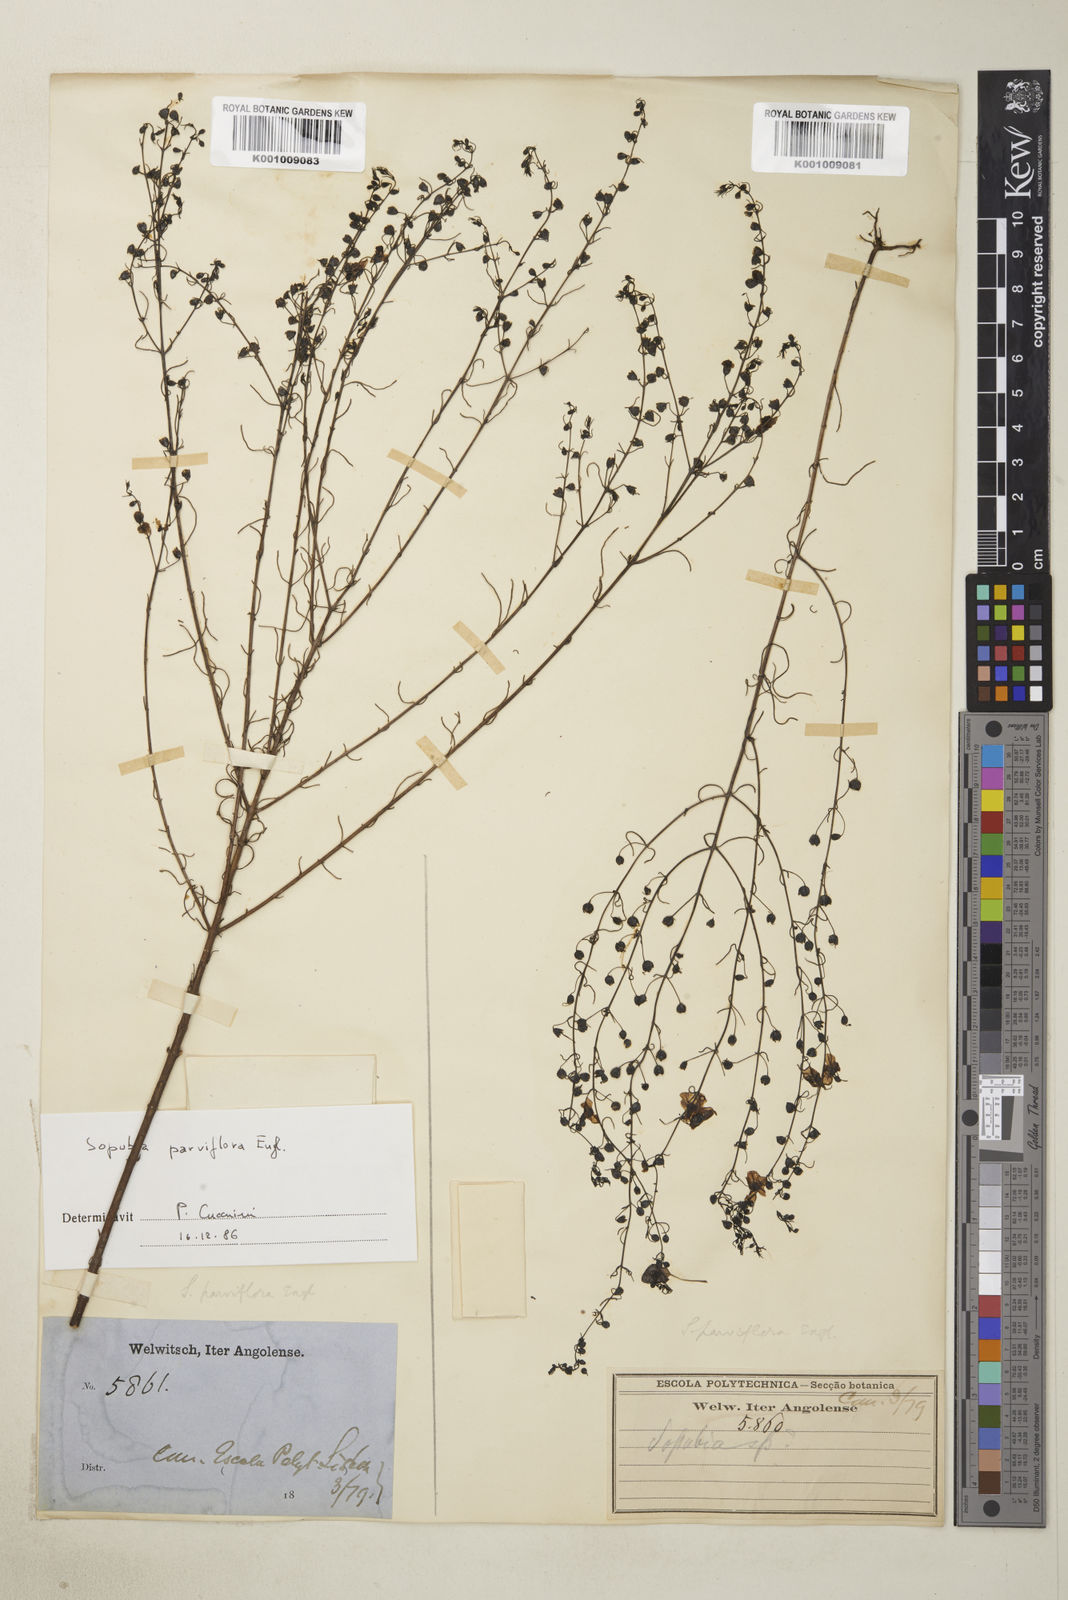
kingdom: Plantae
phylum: Tracheophyta
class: Magnoliopsida
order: Lamiales
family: Orobanchaceae
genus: Sopubia
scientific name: Sopubia parviflora
